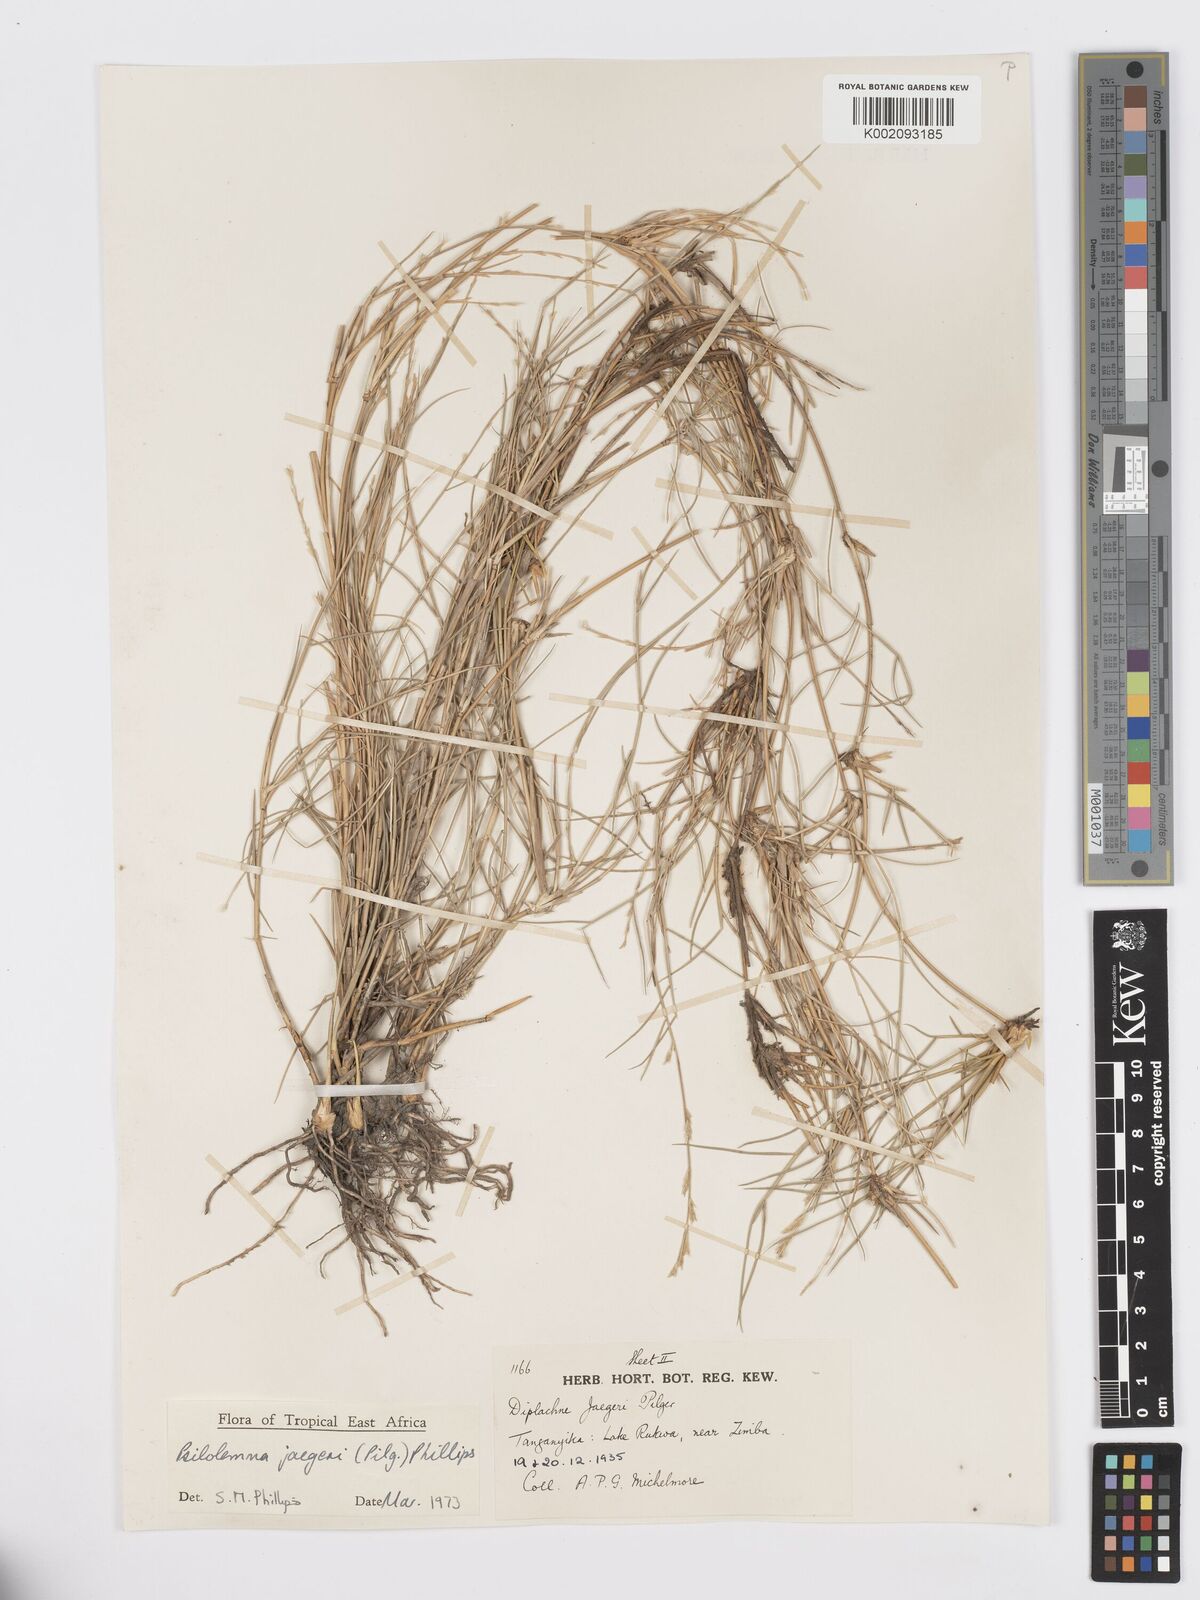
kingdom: Plantae
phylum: Tracheophyta
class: Liliopsida
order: Poales
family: Poaceae
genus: Psilolemma
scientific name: Psilolemma jaegeri
